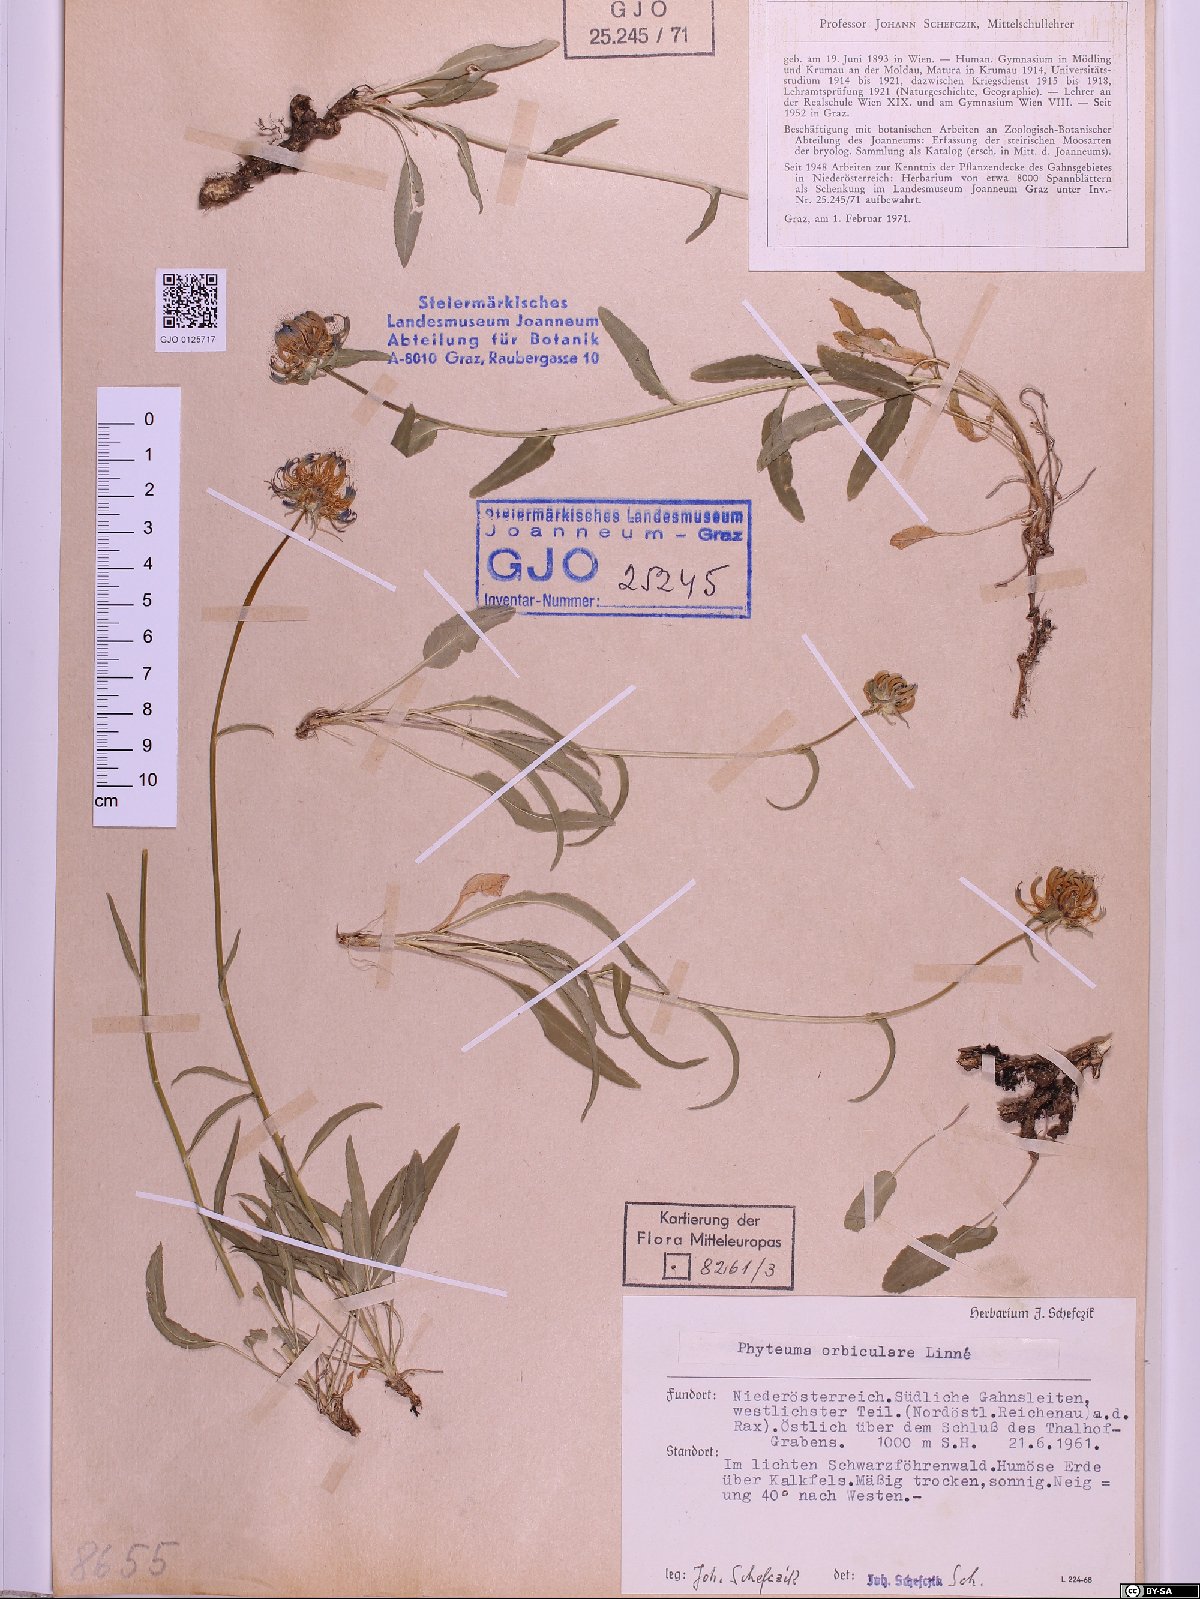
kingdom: Plantae
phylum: Tracheophyta
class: Magnoliopsida
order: Asterales
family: Campanulaceae
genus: Phyteuma
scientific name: Phyteuma orbiculare
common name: Round-headed rampion
